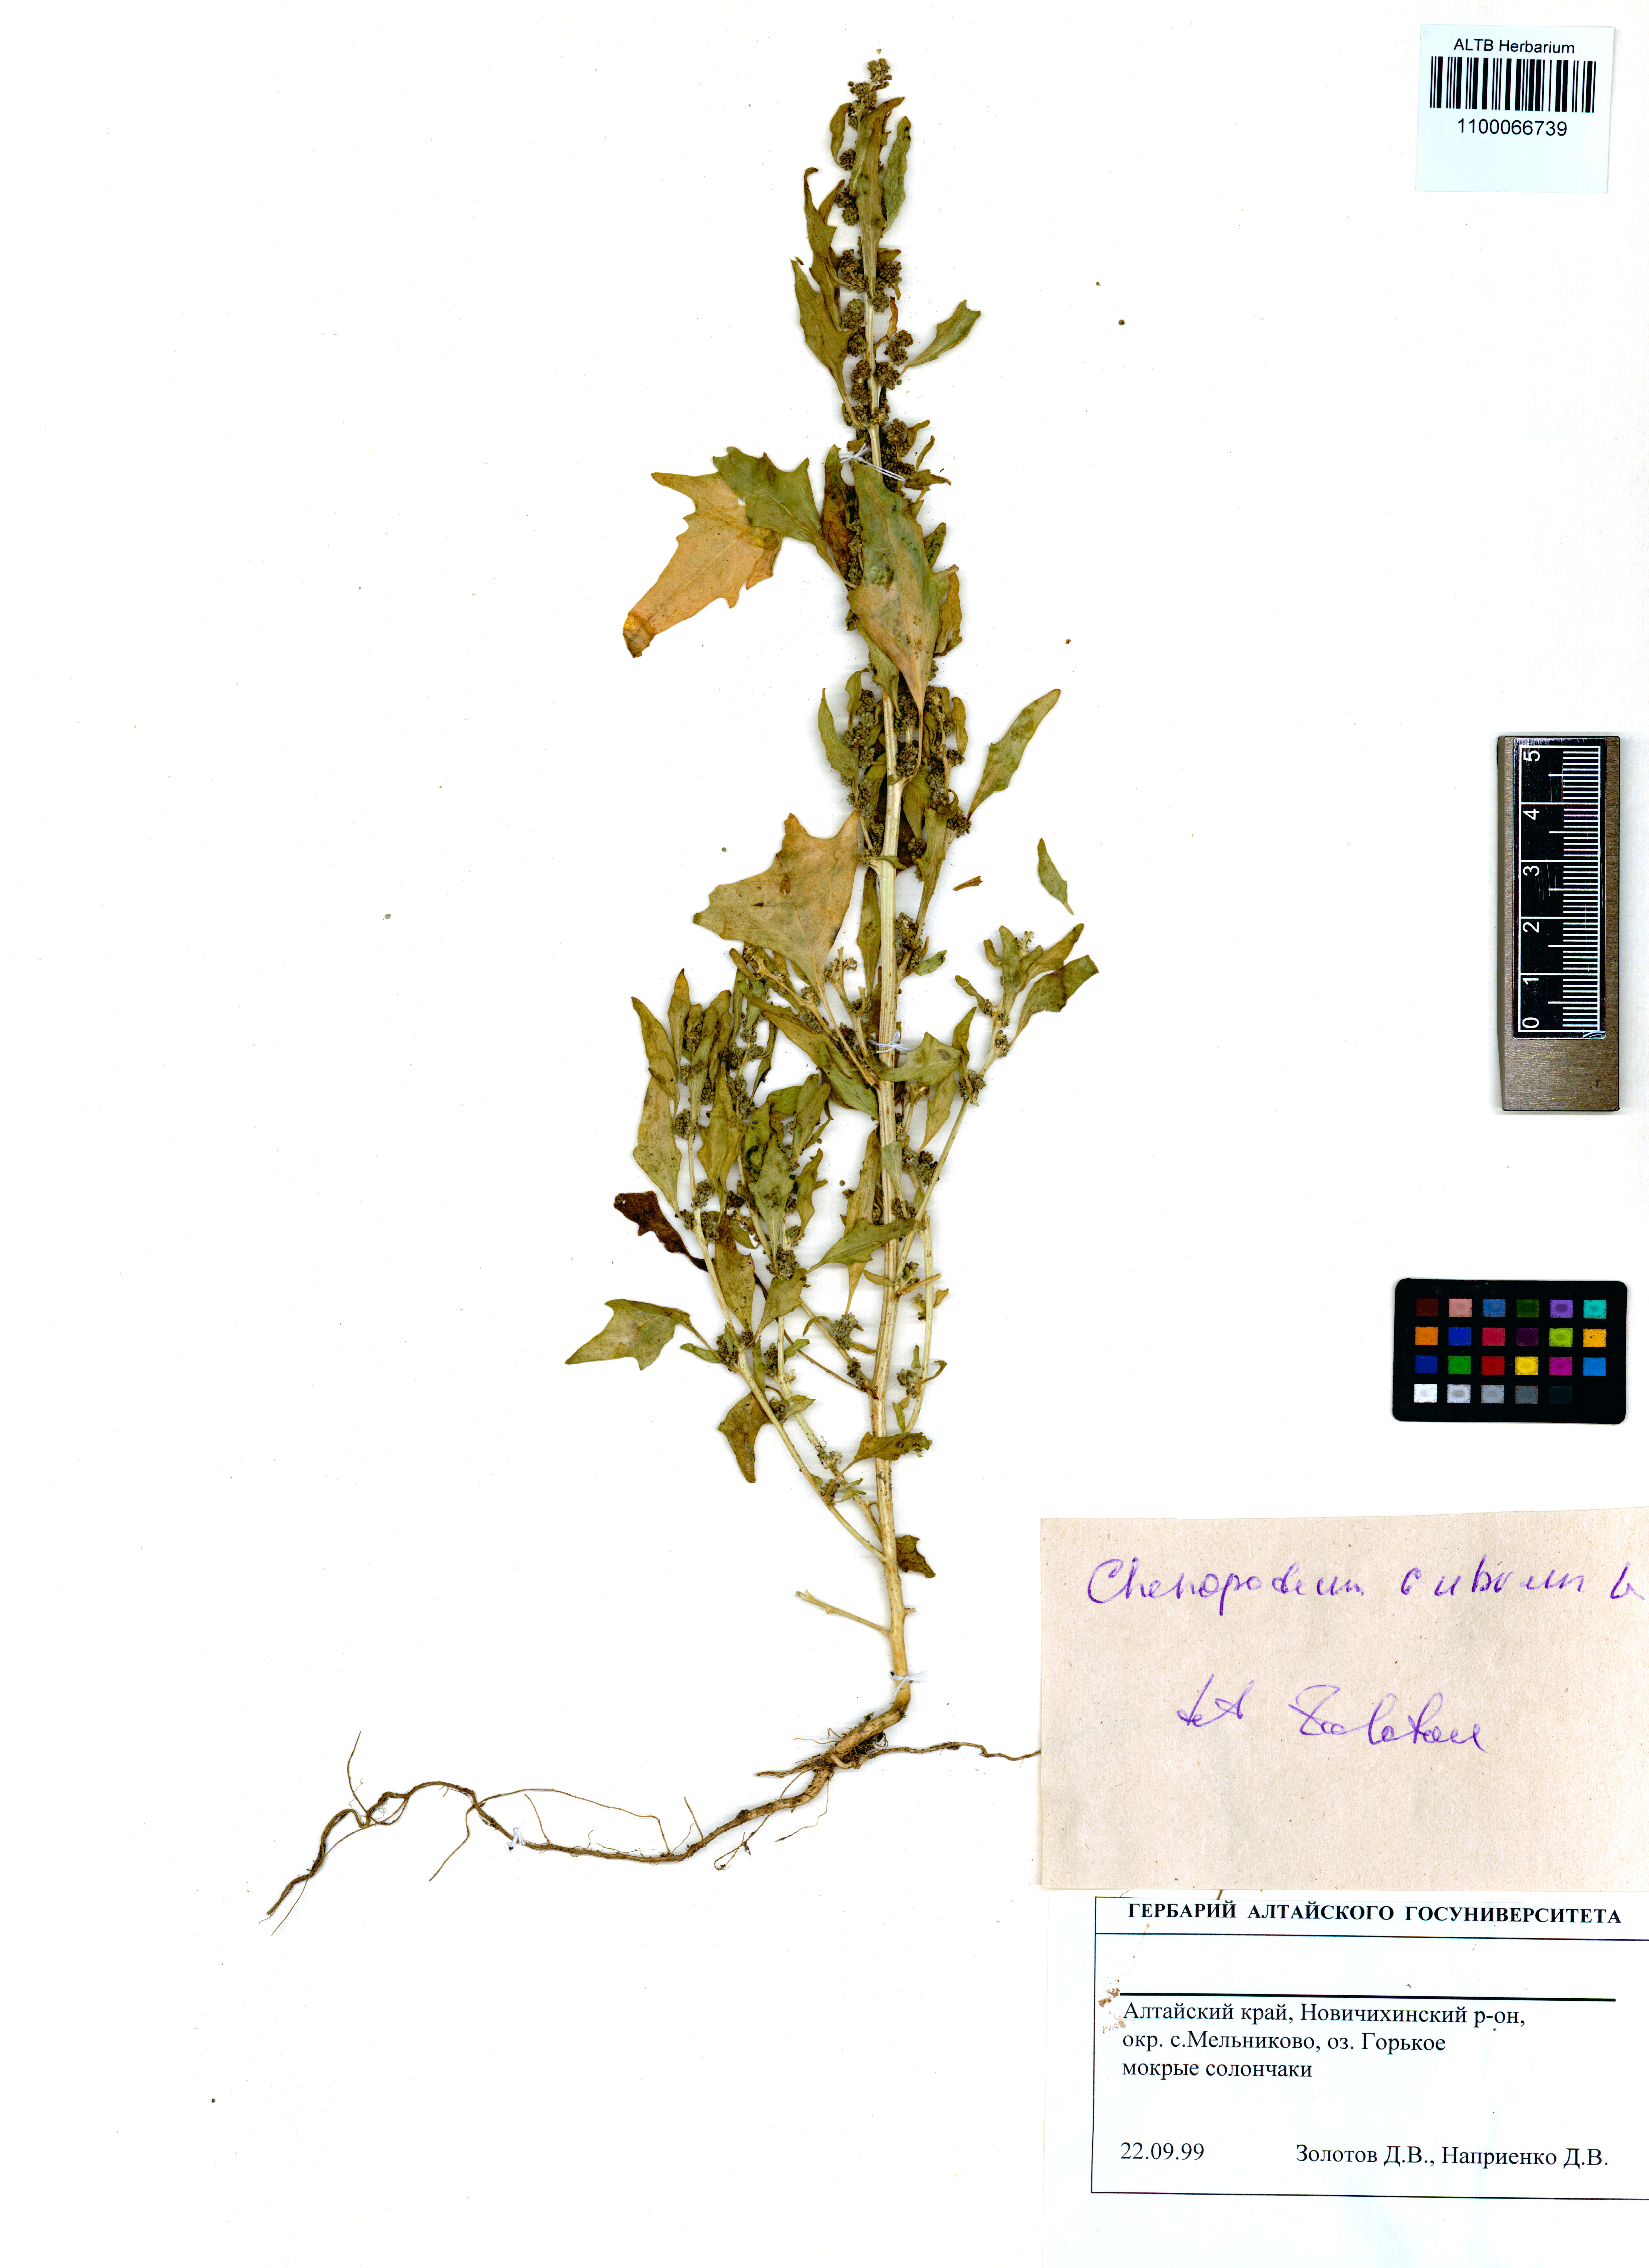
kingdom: Plantae
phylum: Tracheophyta
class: Magnoliopsida
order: Caryophyllales
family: Amaranthaceae
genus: Oxybasis
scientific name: Oxybasis rubra
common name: Red goosefoot
